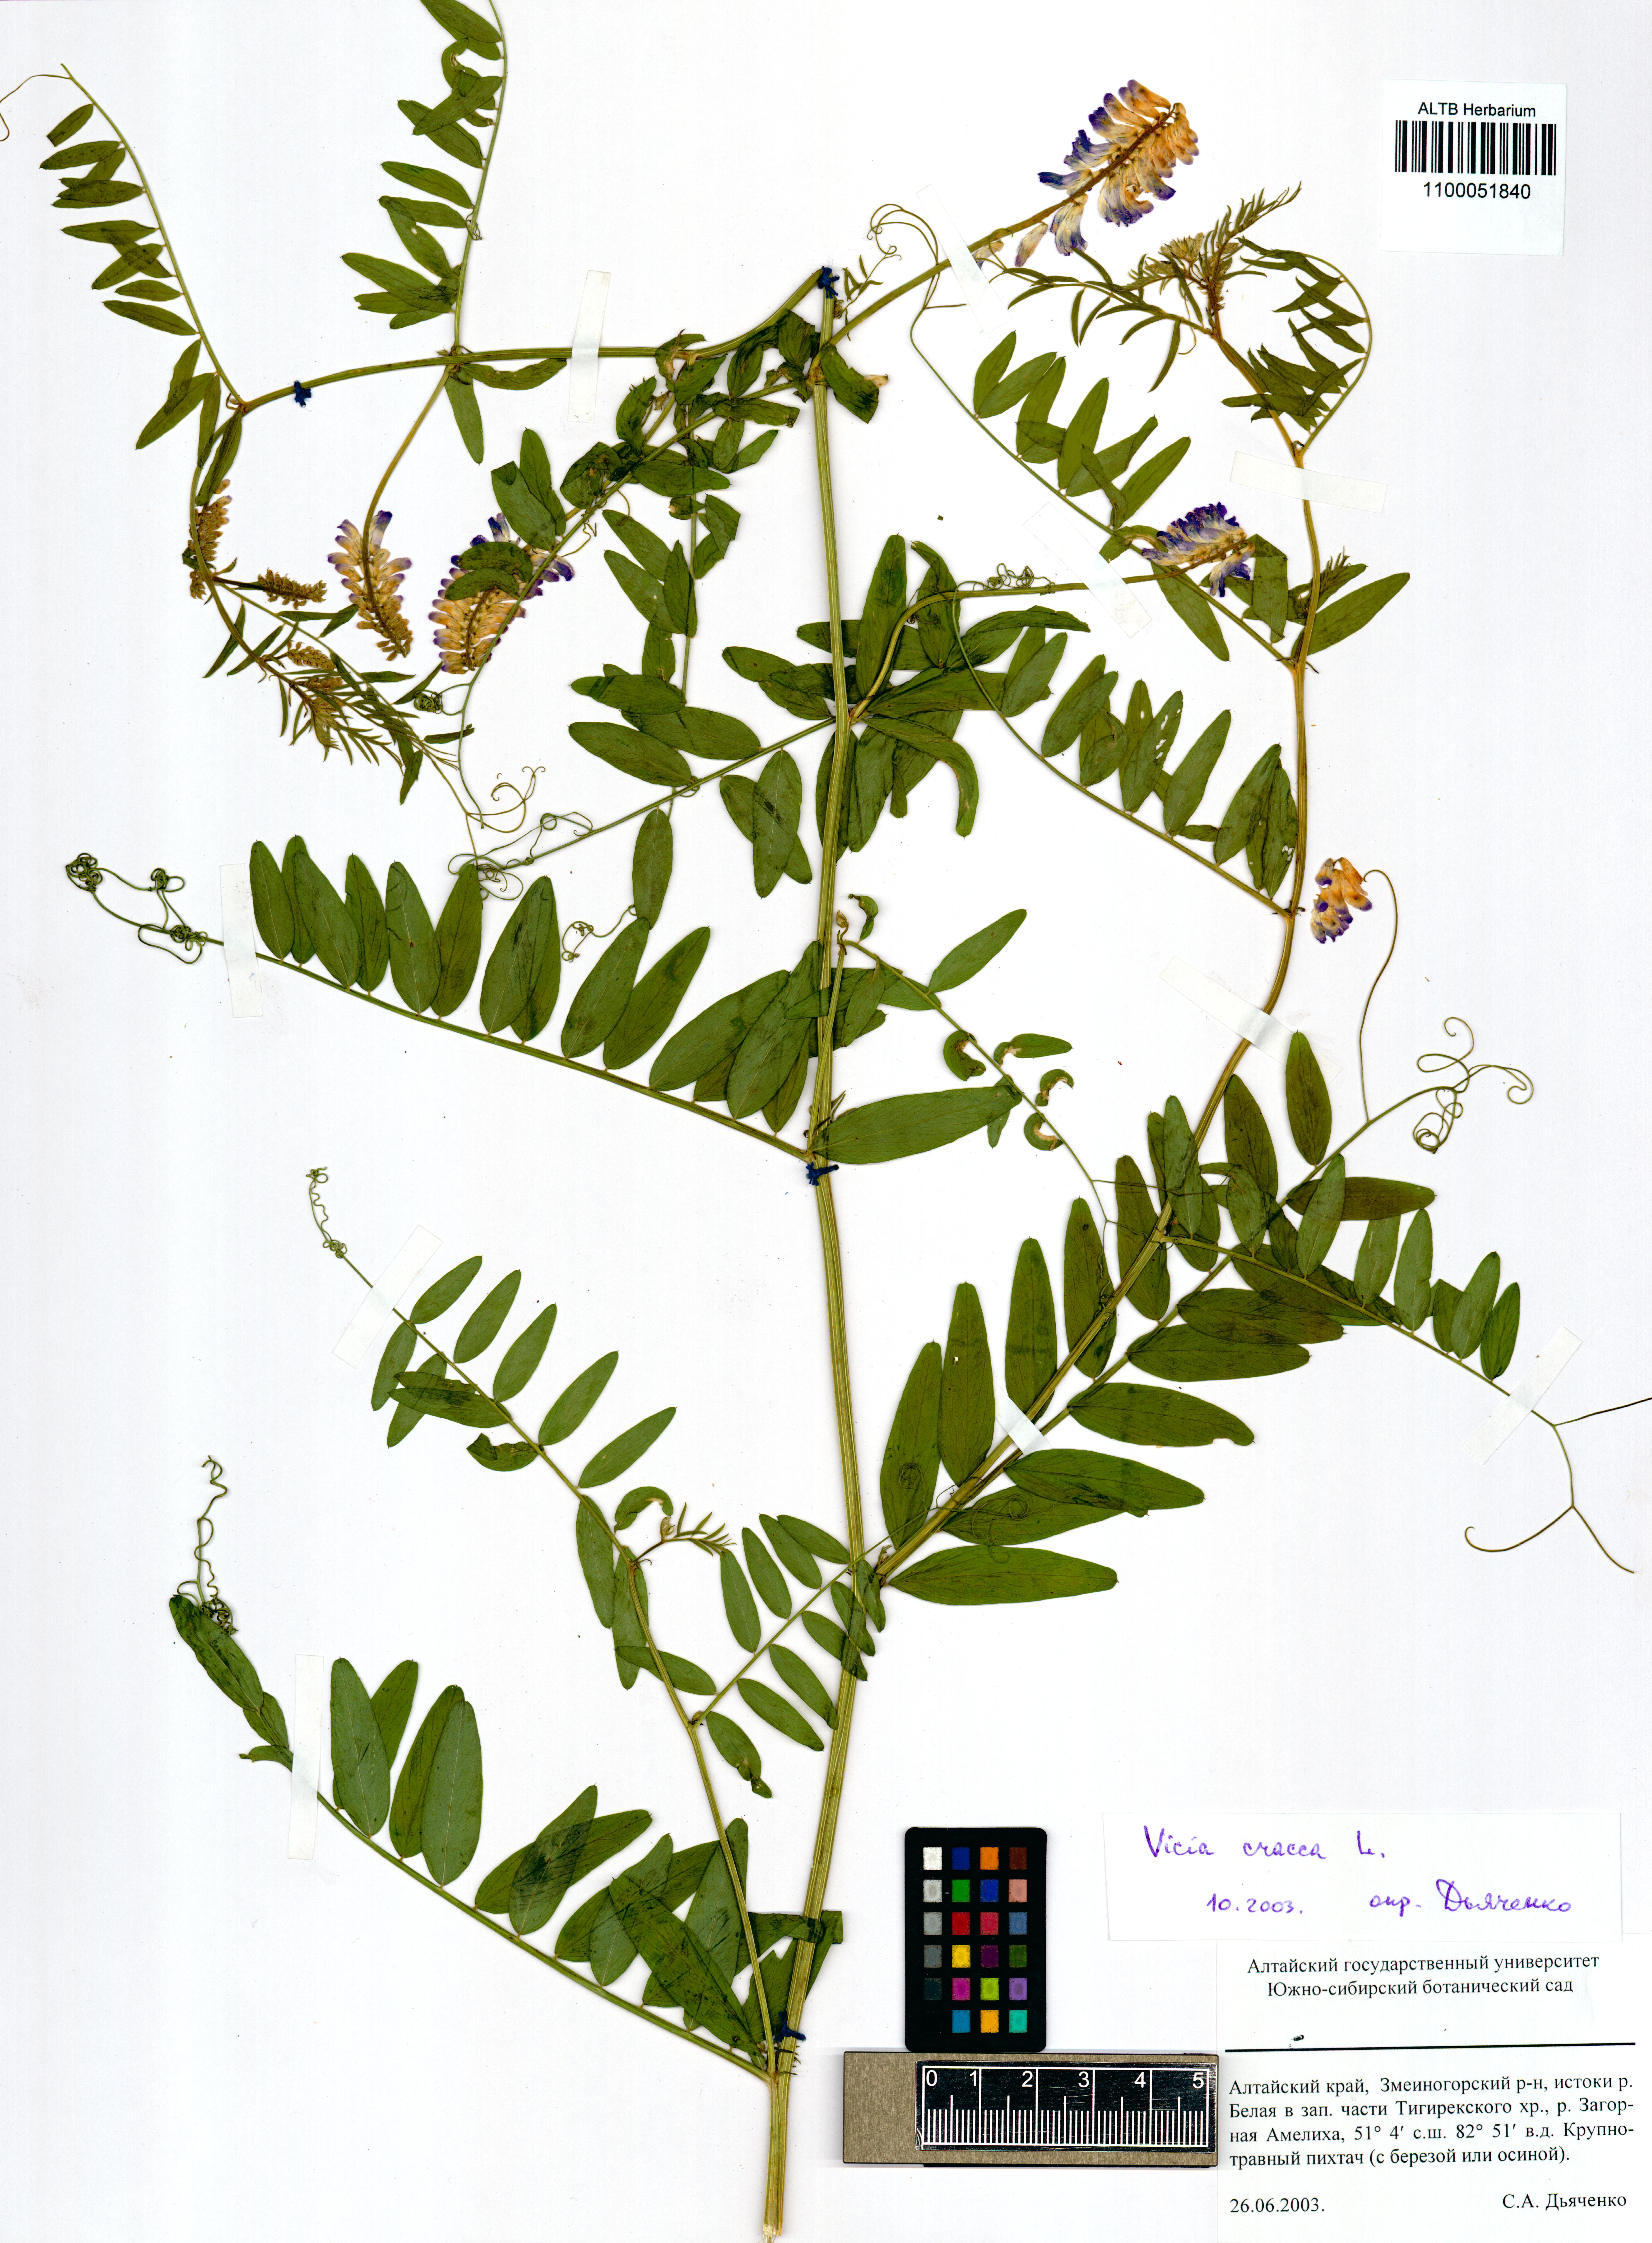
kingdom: Plantae
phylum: Tracheophyta
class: Magnoliopsida
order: Fabales
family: Fabaceae
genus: Vicia
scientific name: Vicia cracca
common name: Bird vetch
